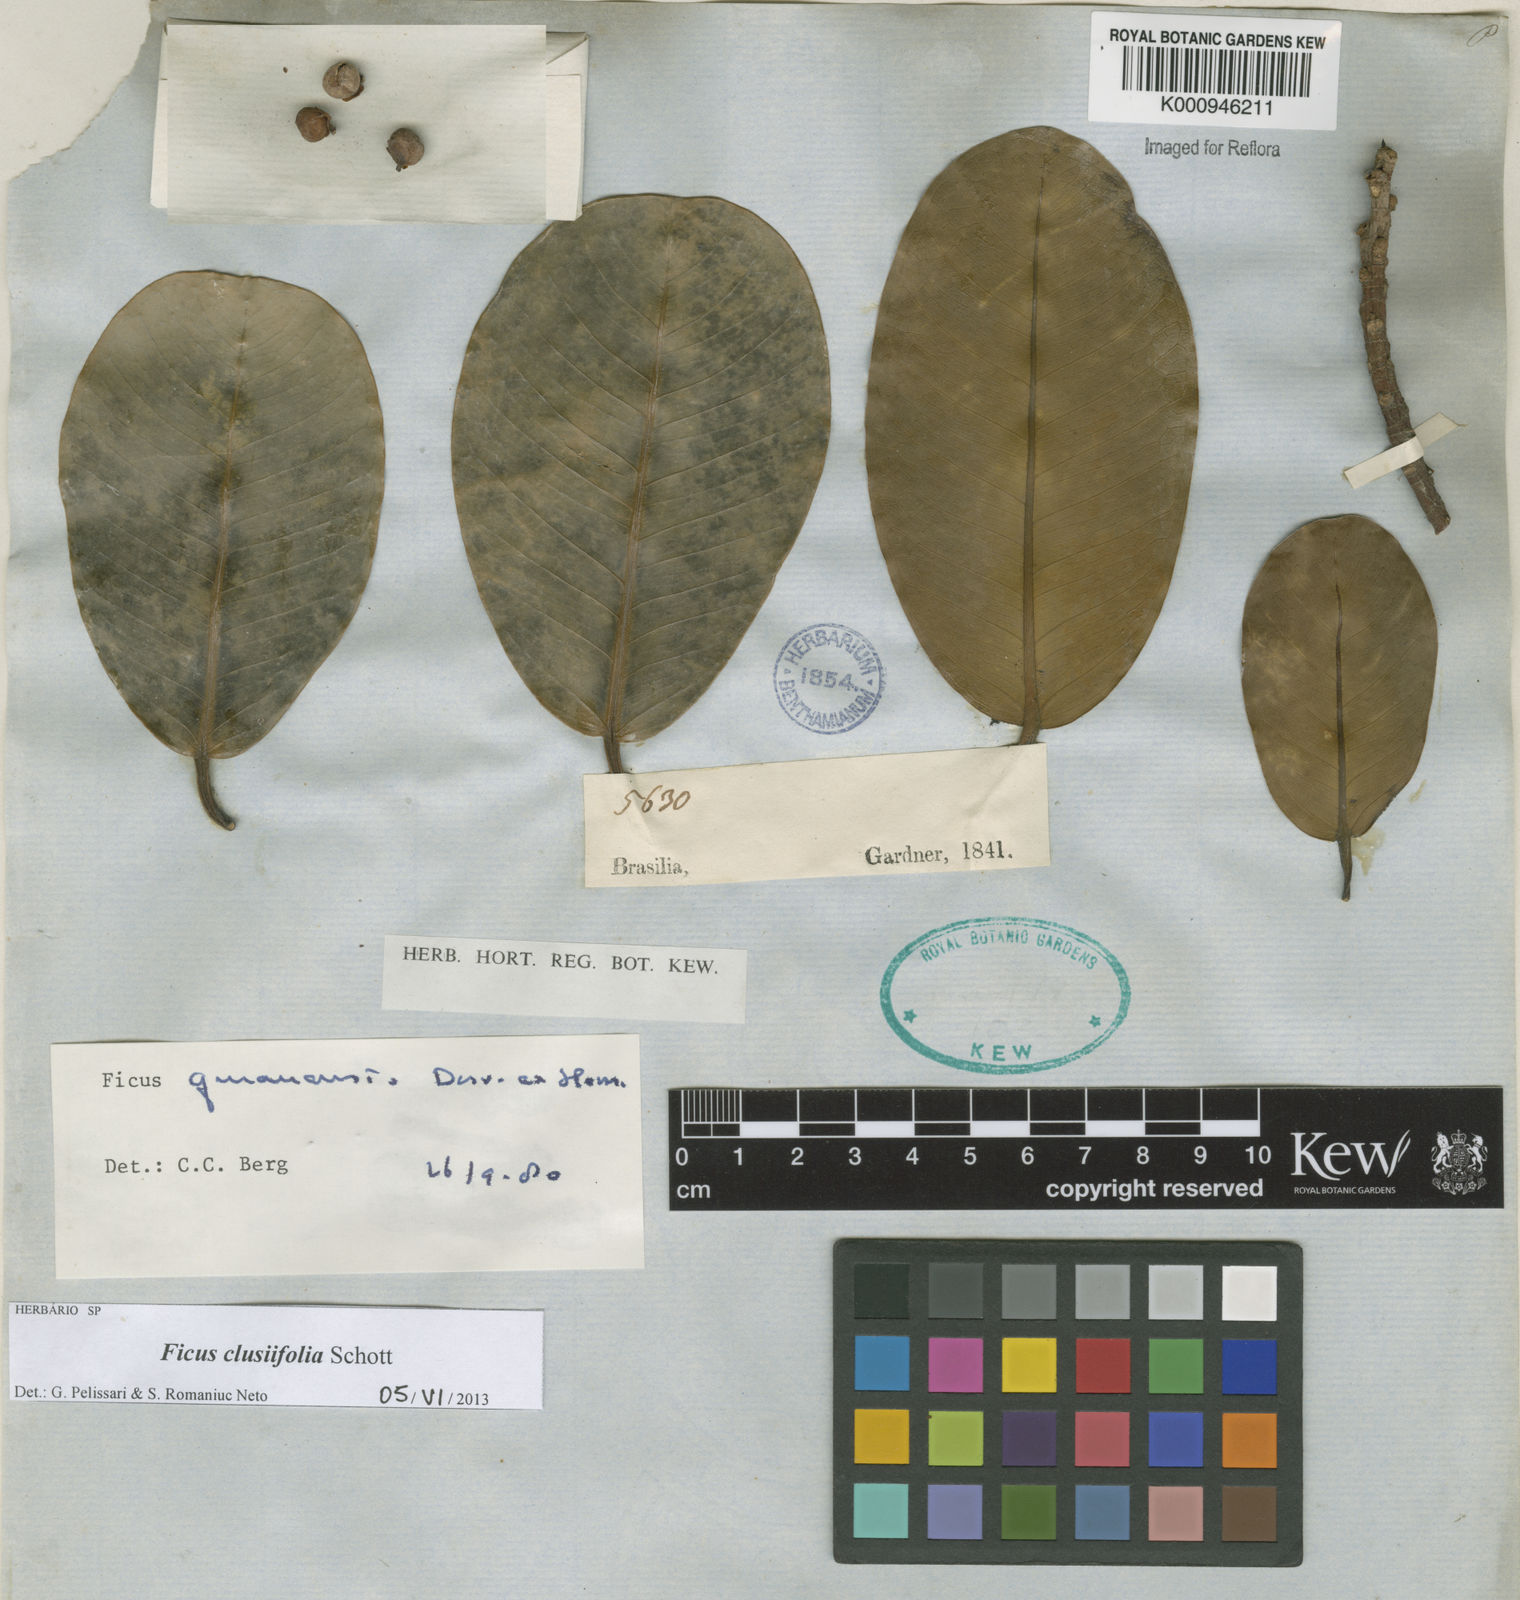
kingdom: Plantae
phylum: Tracheophyta
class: Magnoliopsida
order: Rosales
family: Moraceae
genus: Ficus
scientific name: Ficus
